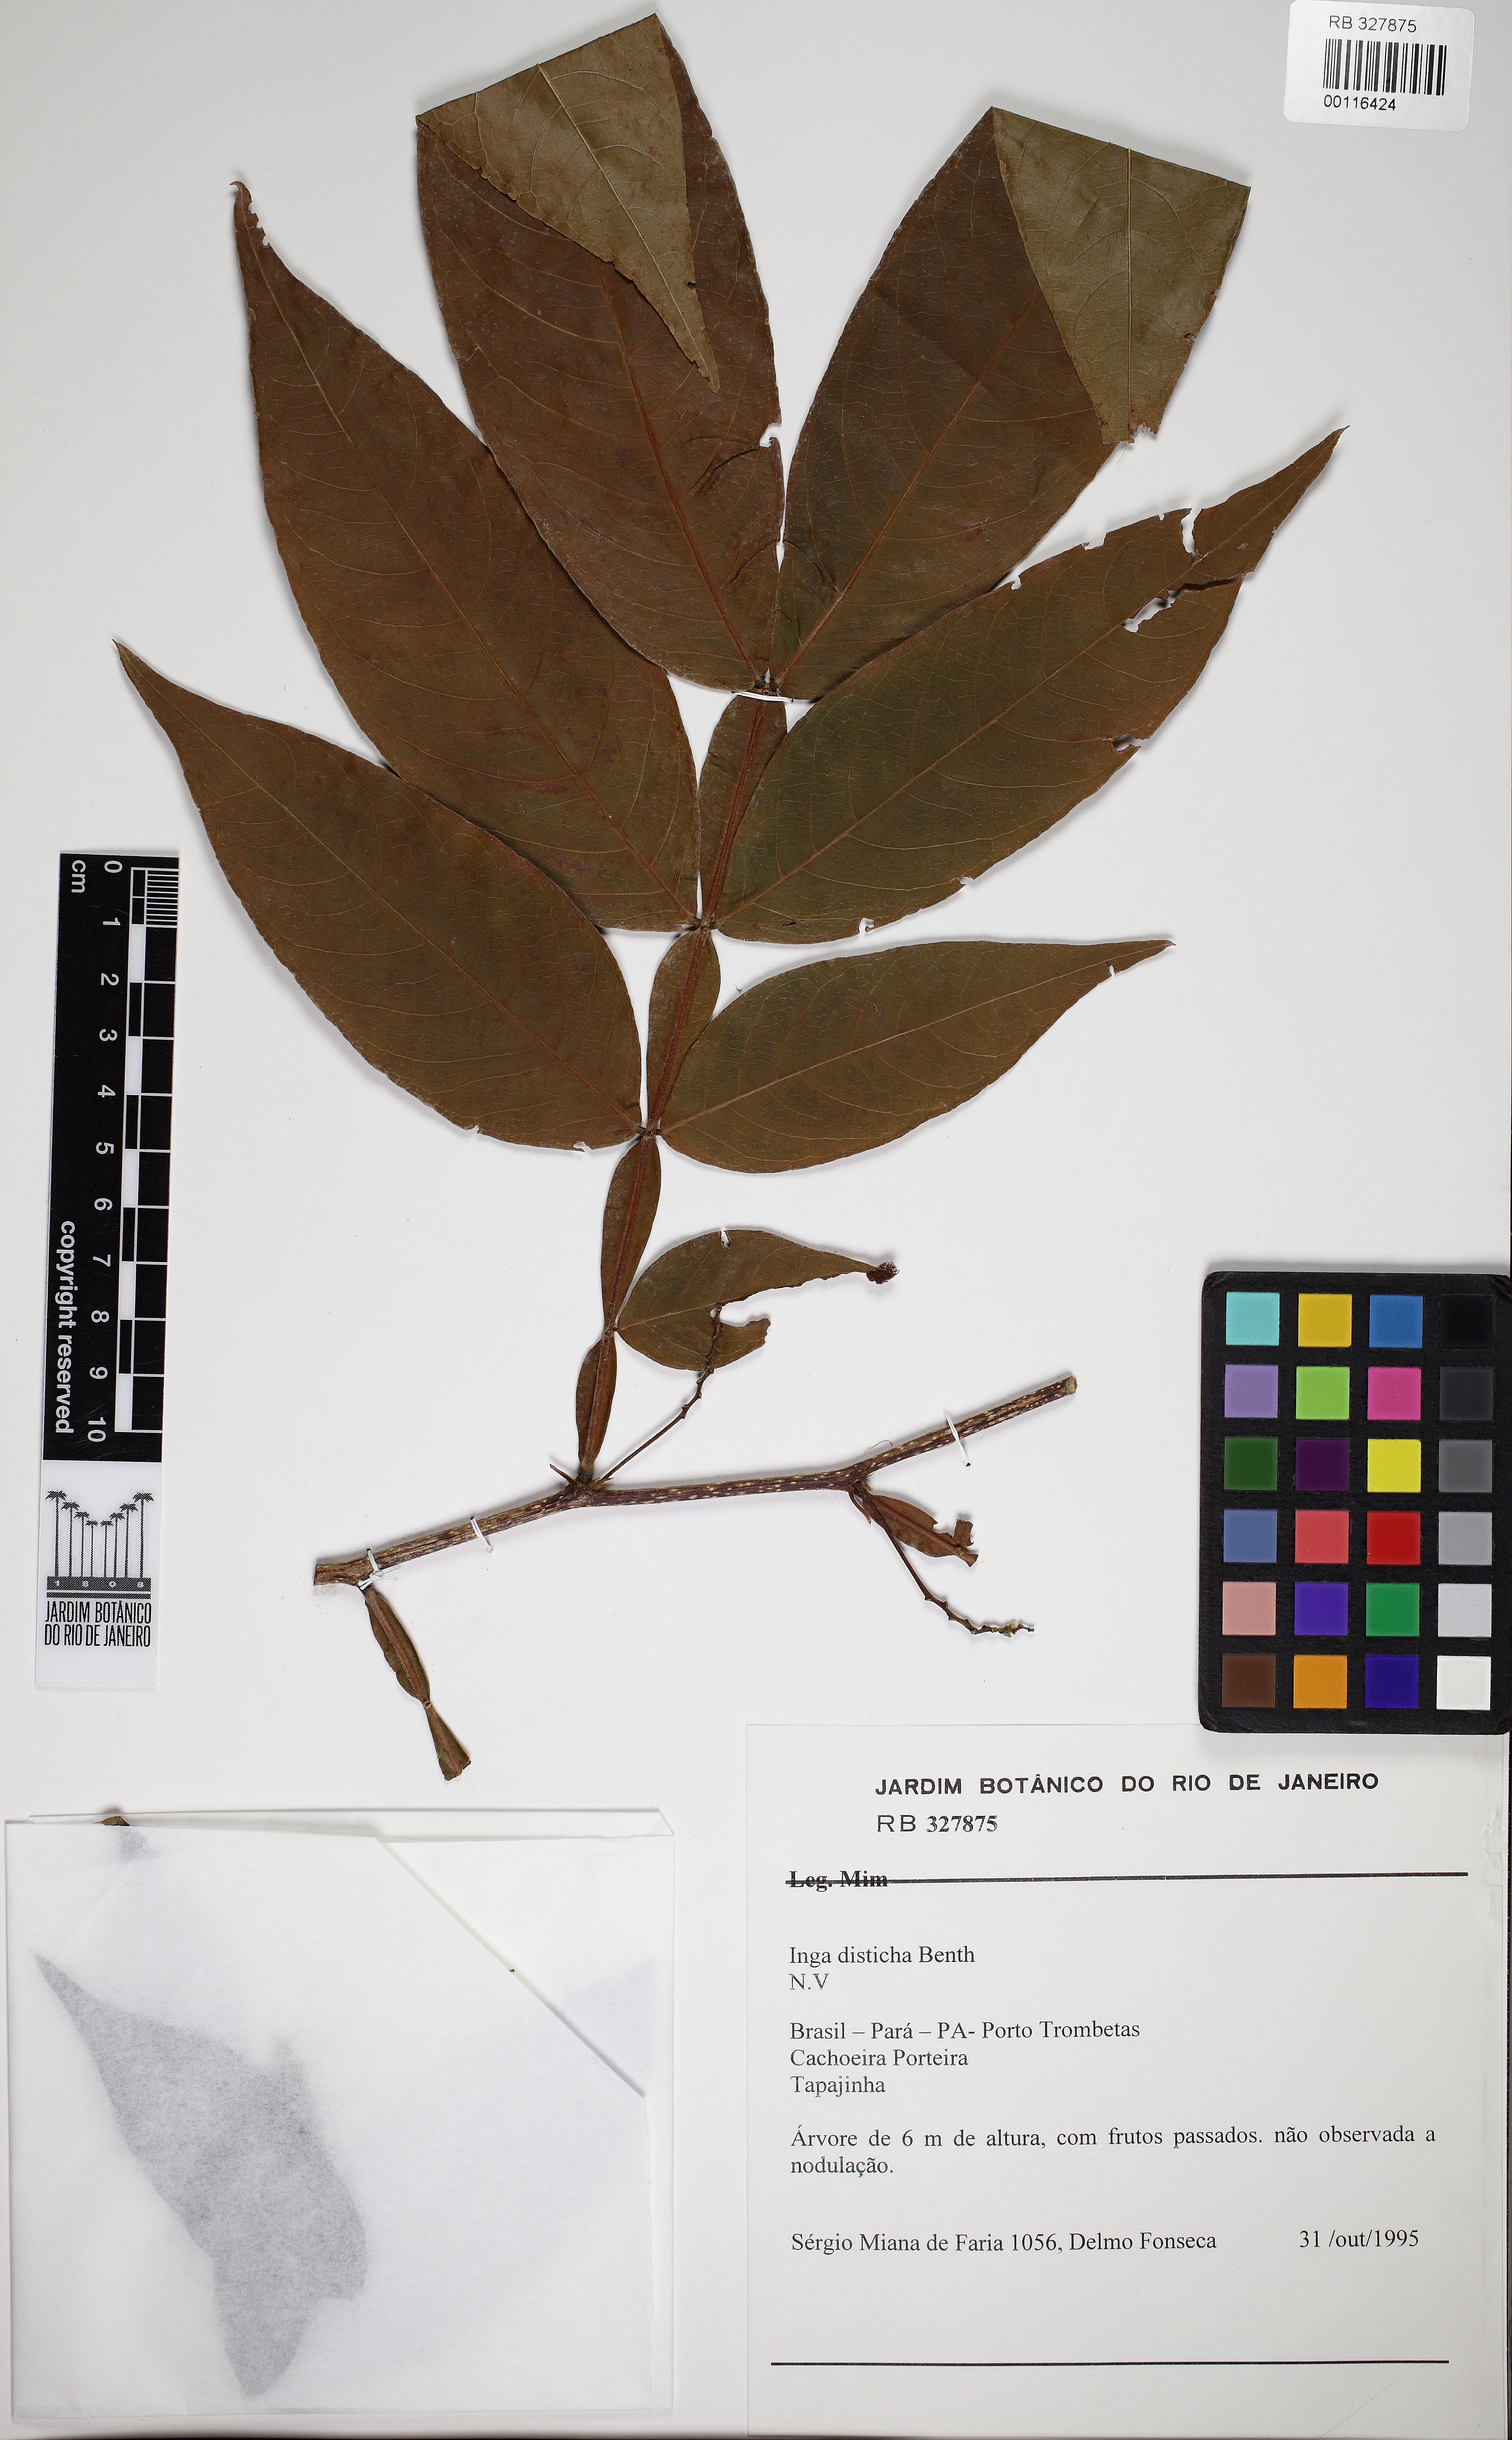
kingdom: Plantae
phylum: Tracheophyta
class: Magnoliopsida
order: Fabales
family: Fabaceae
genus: Inga
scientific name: Inga disticha
